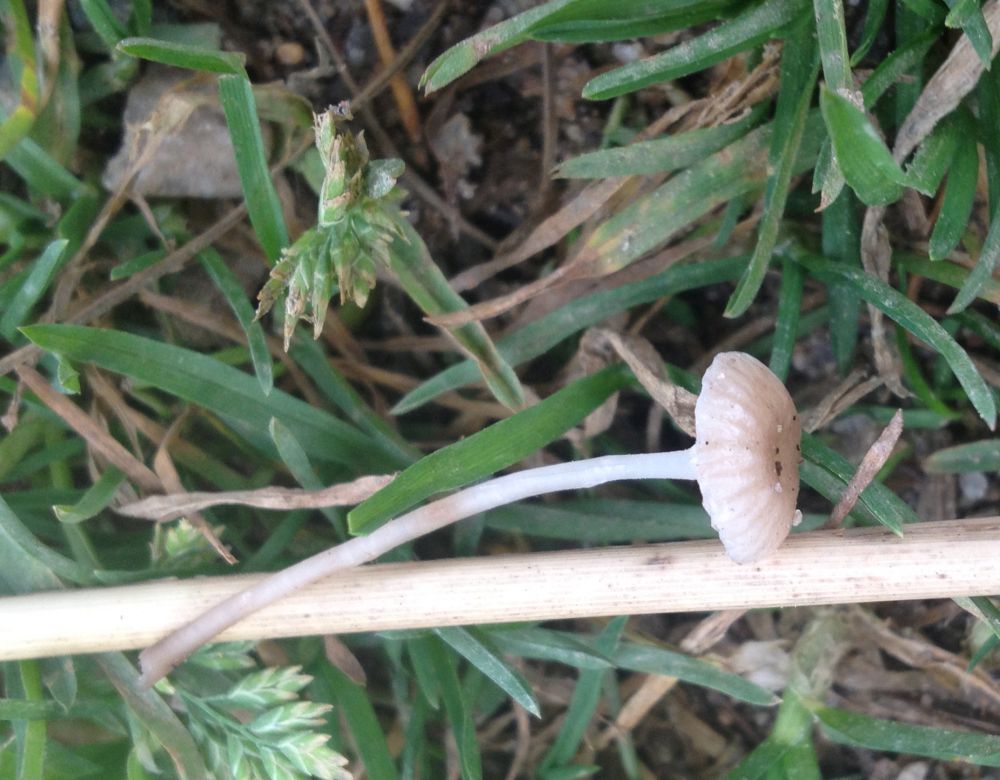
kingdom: Fungi
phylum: Basidiomycota
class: Agaricomycetes
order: Agaricales
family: Mycenaceae
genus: Mycena
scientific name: Mycena belliae
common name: tagrørs-huesvamp
